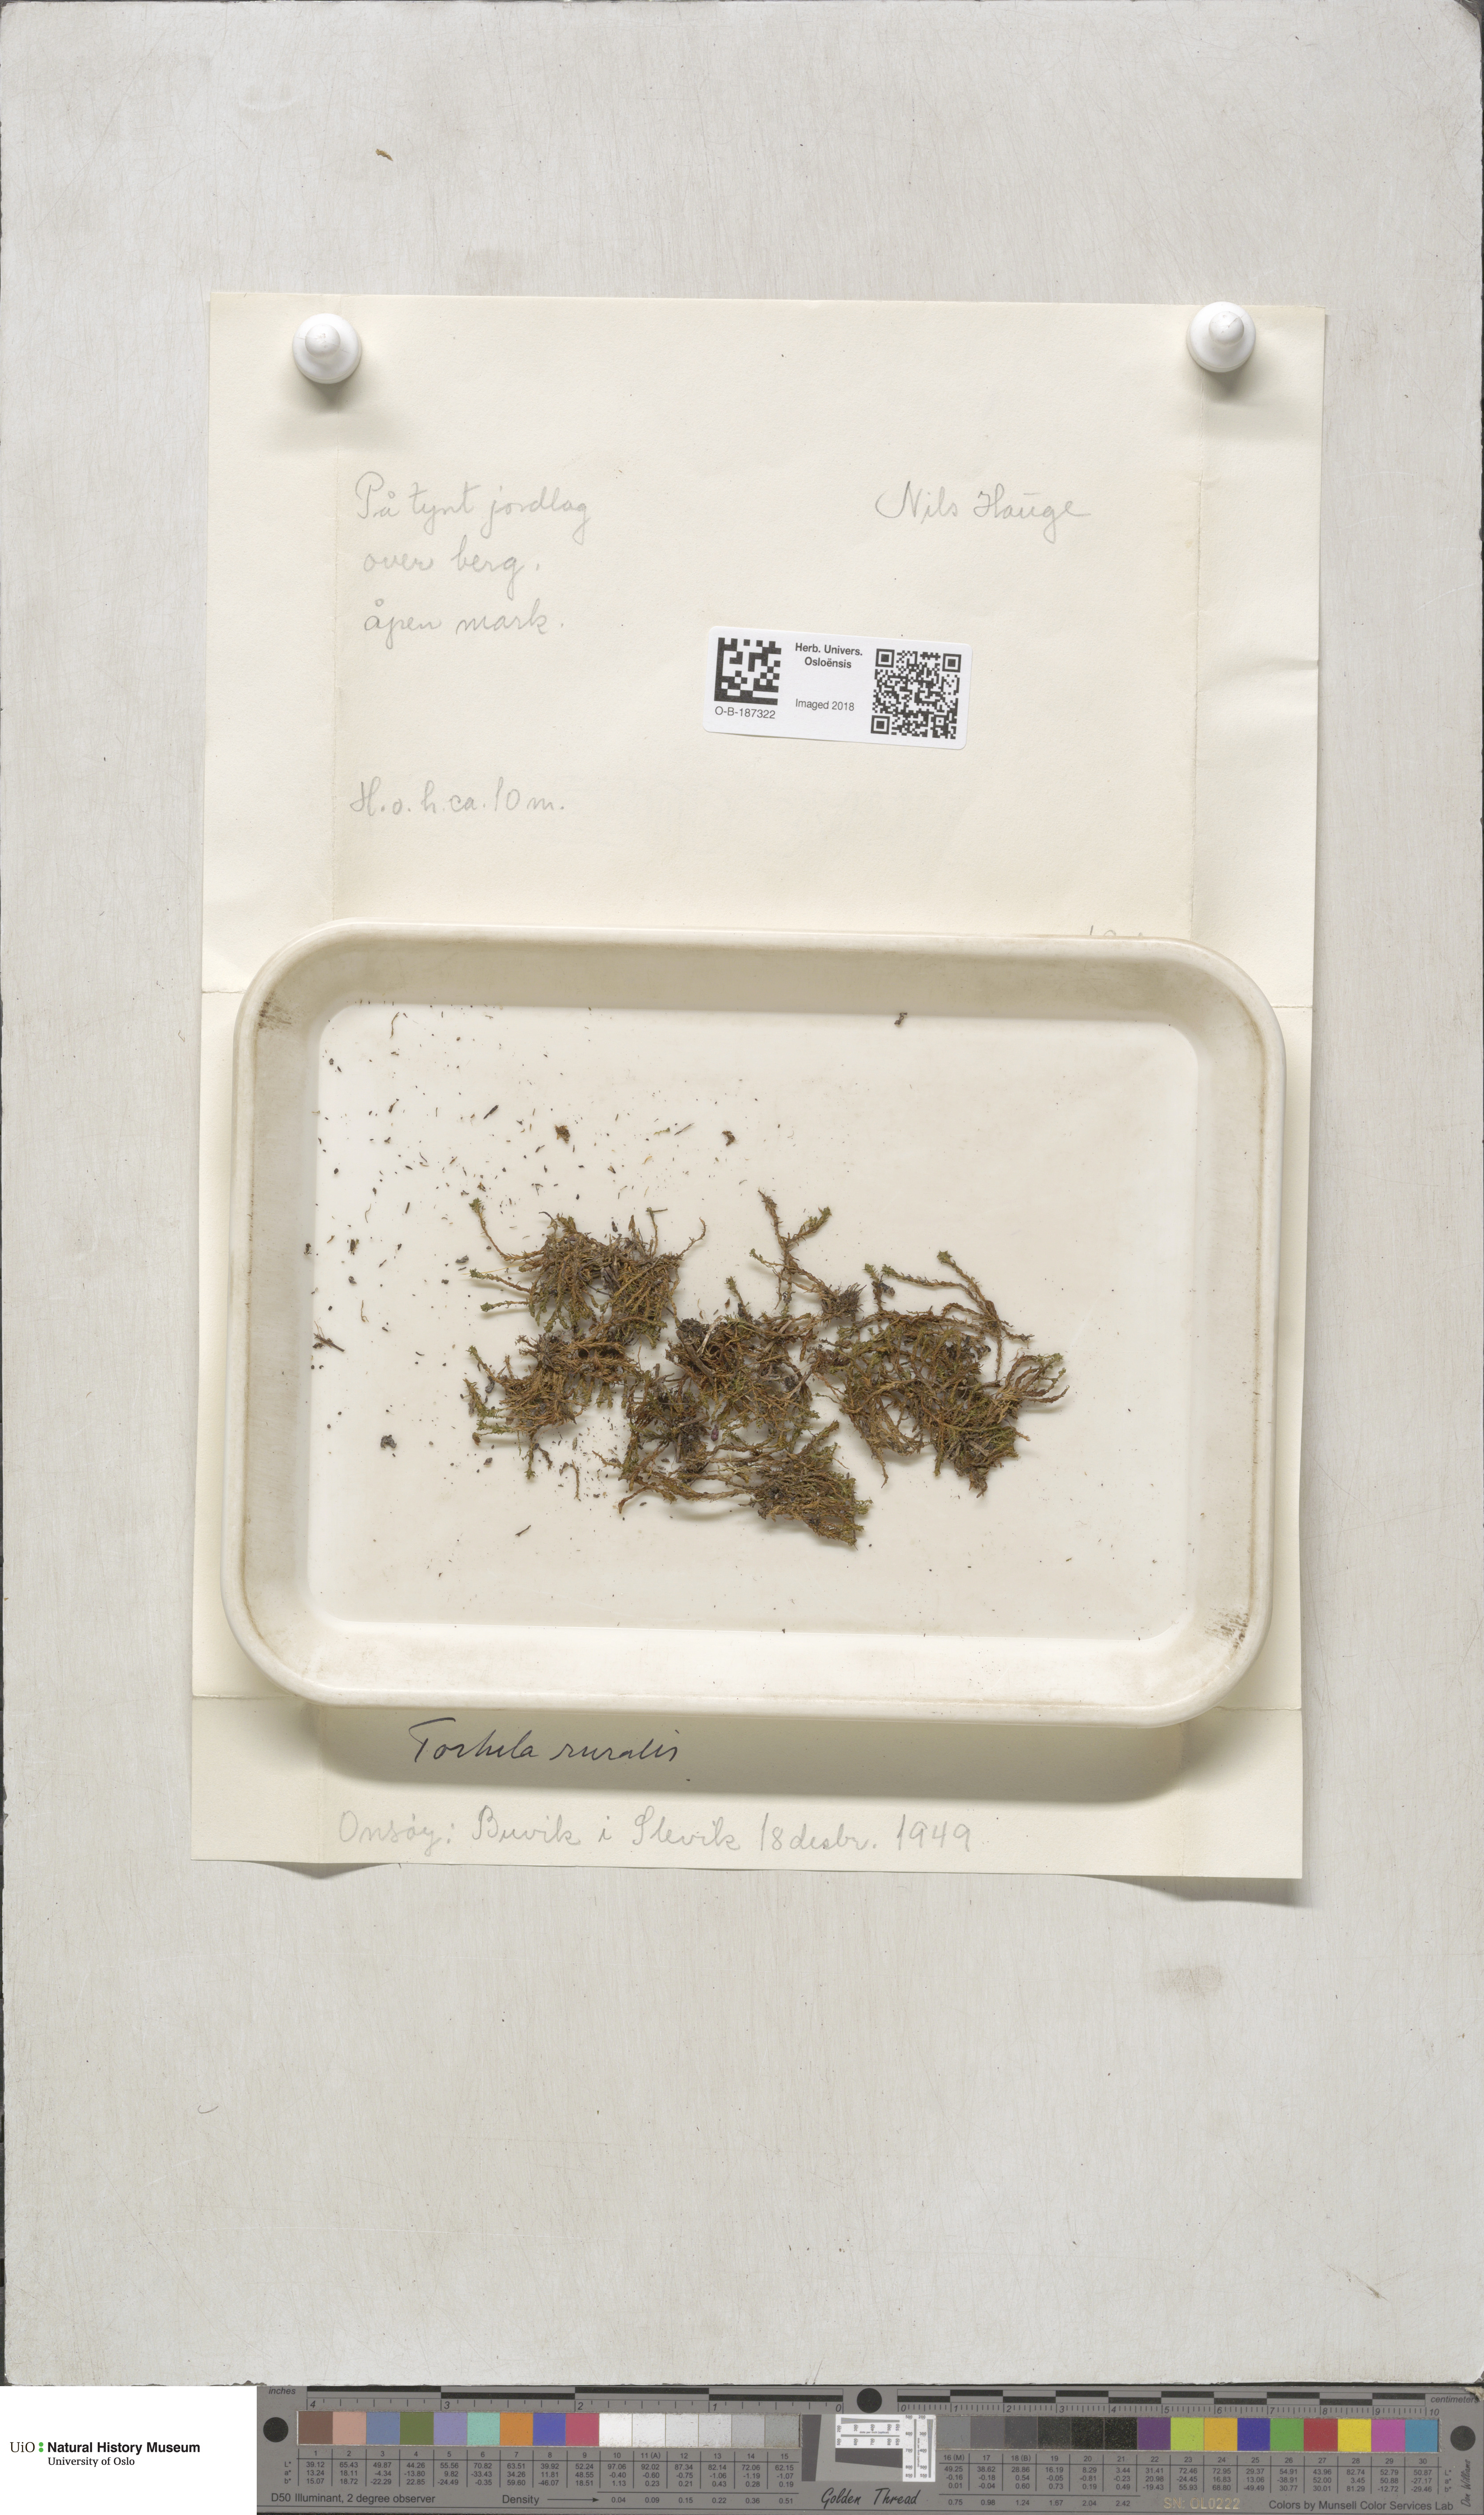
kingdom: Plantae
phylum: Bryophyta
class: Bryopsida
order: Pottiales
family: Pottiaceae
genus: Syntrichia
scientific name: Syntrichia ruralis
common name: Sidewalk screw moss
